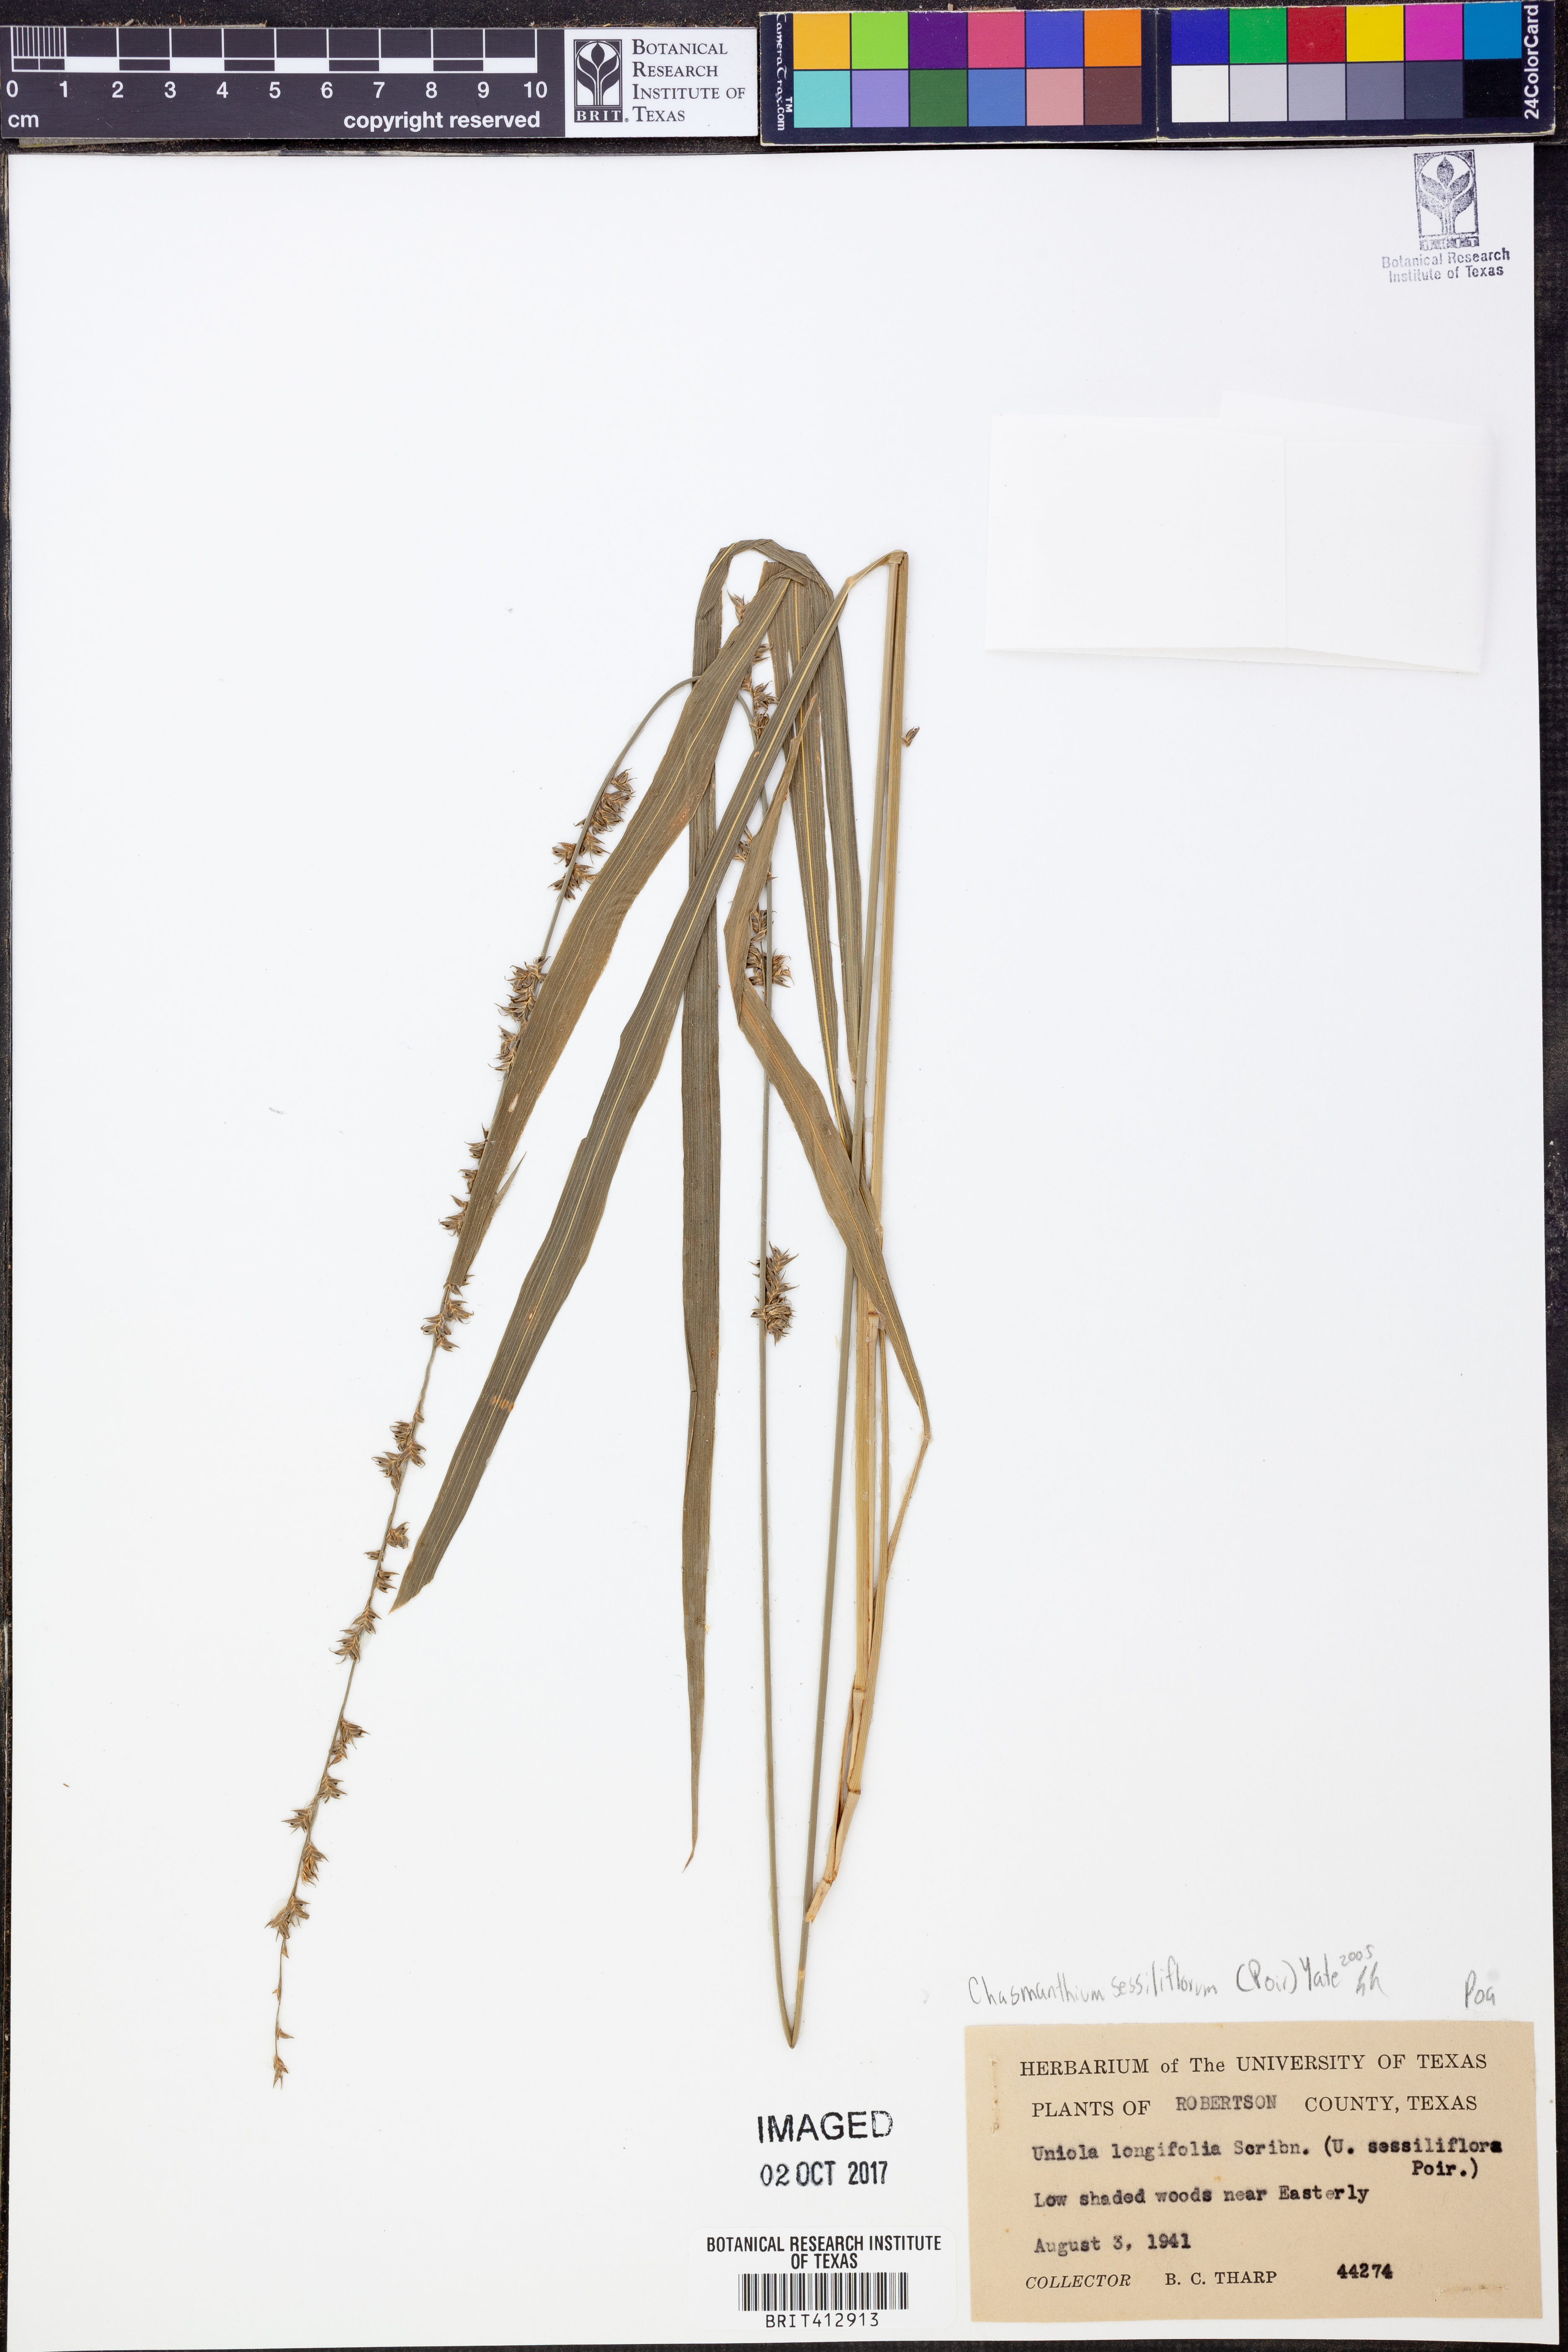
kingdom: Plantae
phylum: Tracheophyta
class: Liliopsida
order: Poales
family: Poaceae
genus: Chasmanthium
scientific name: Chasmanthium laxum
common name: Slender chasmanthium
